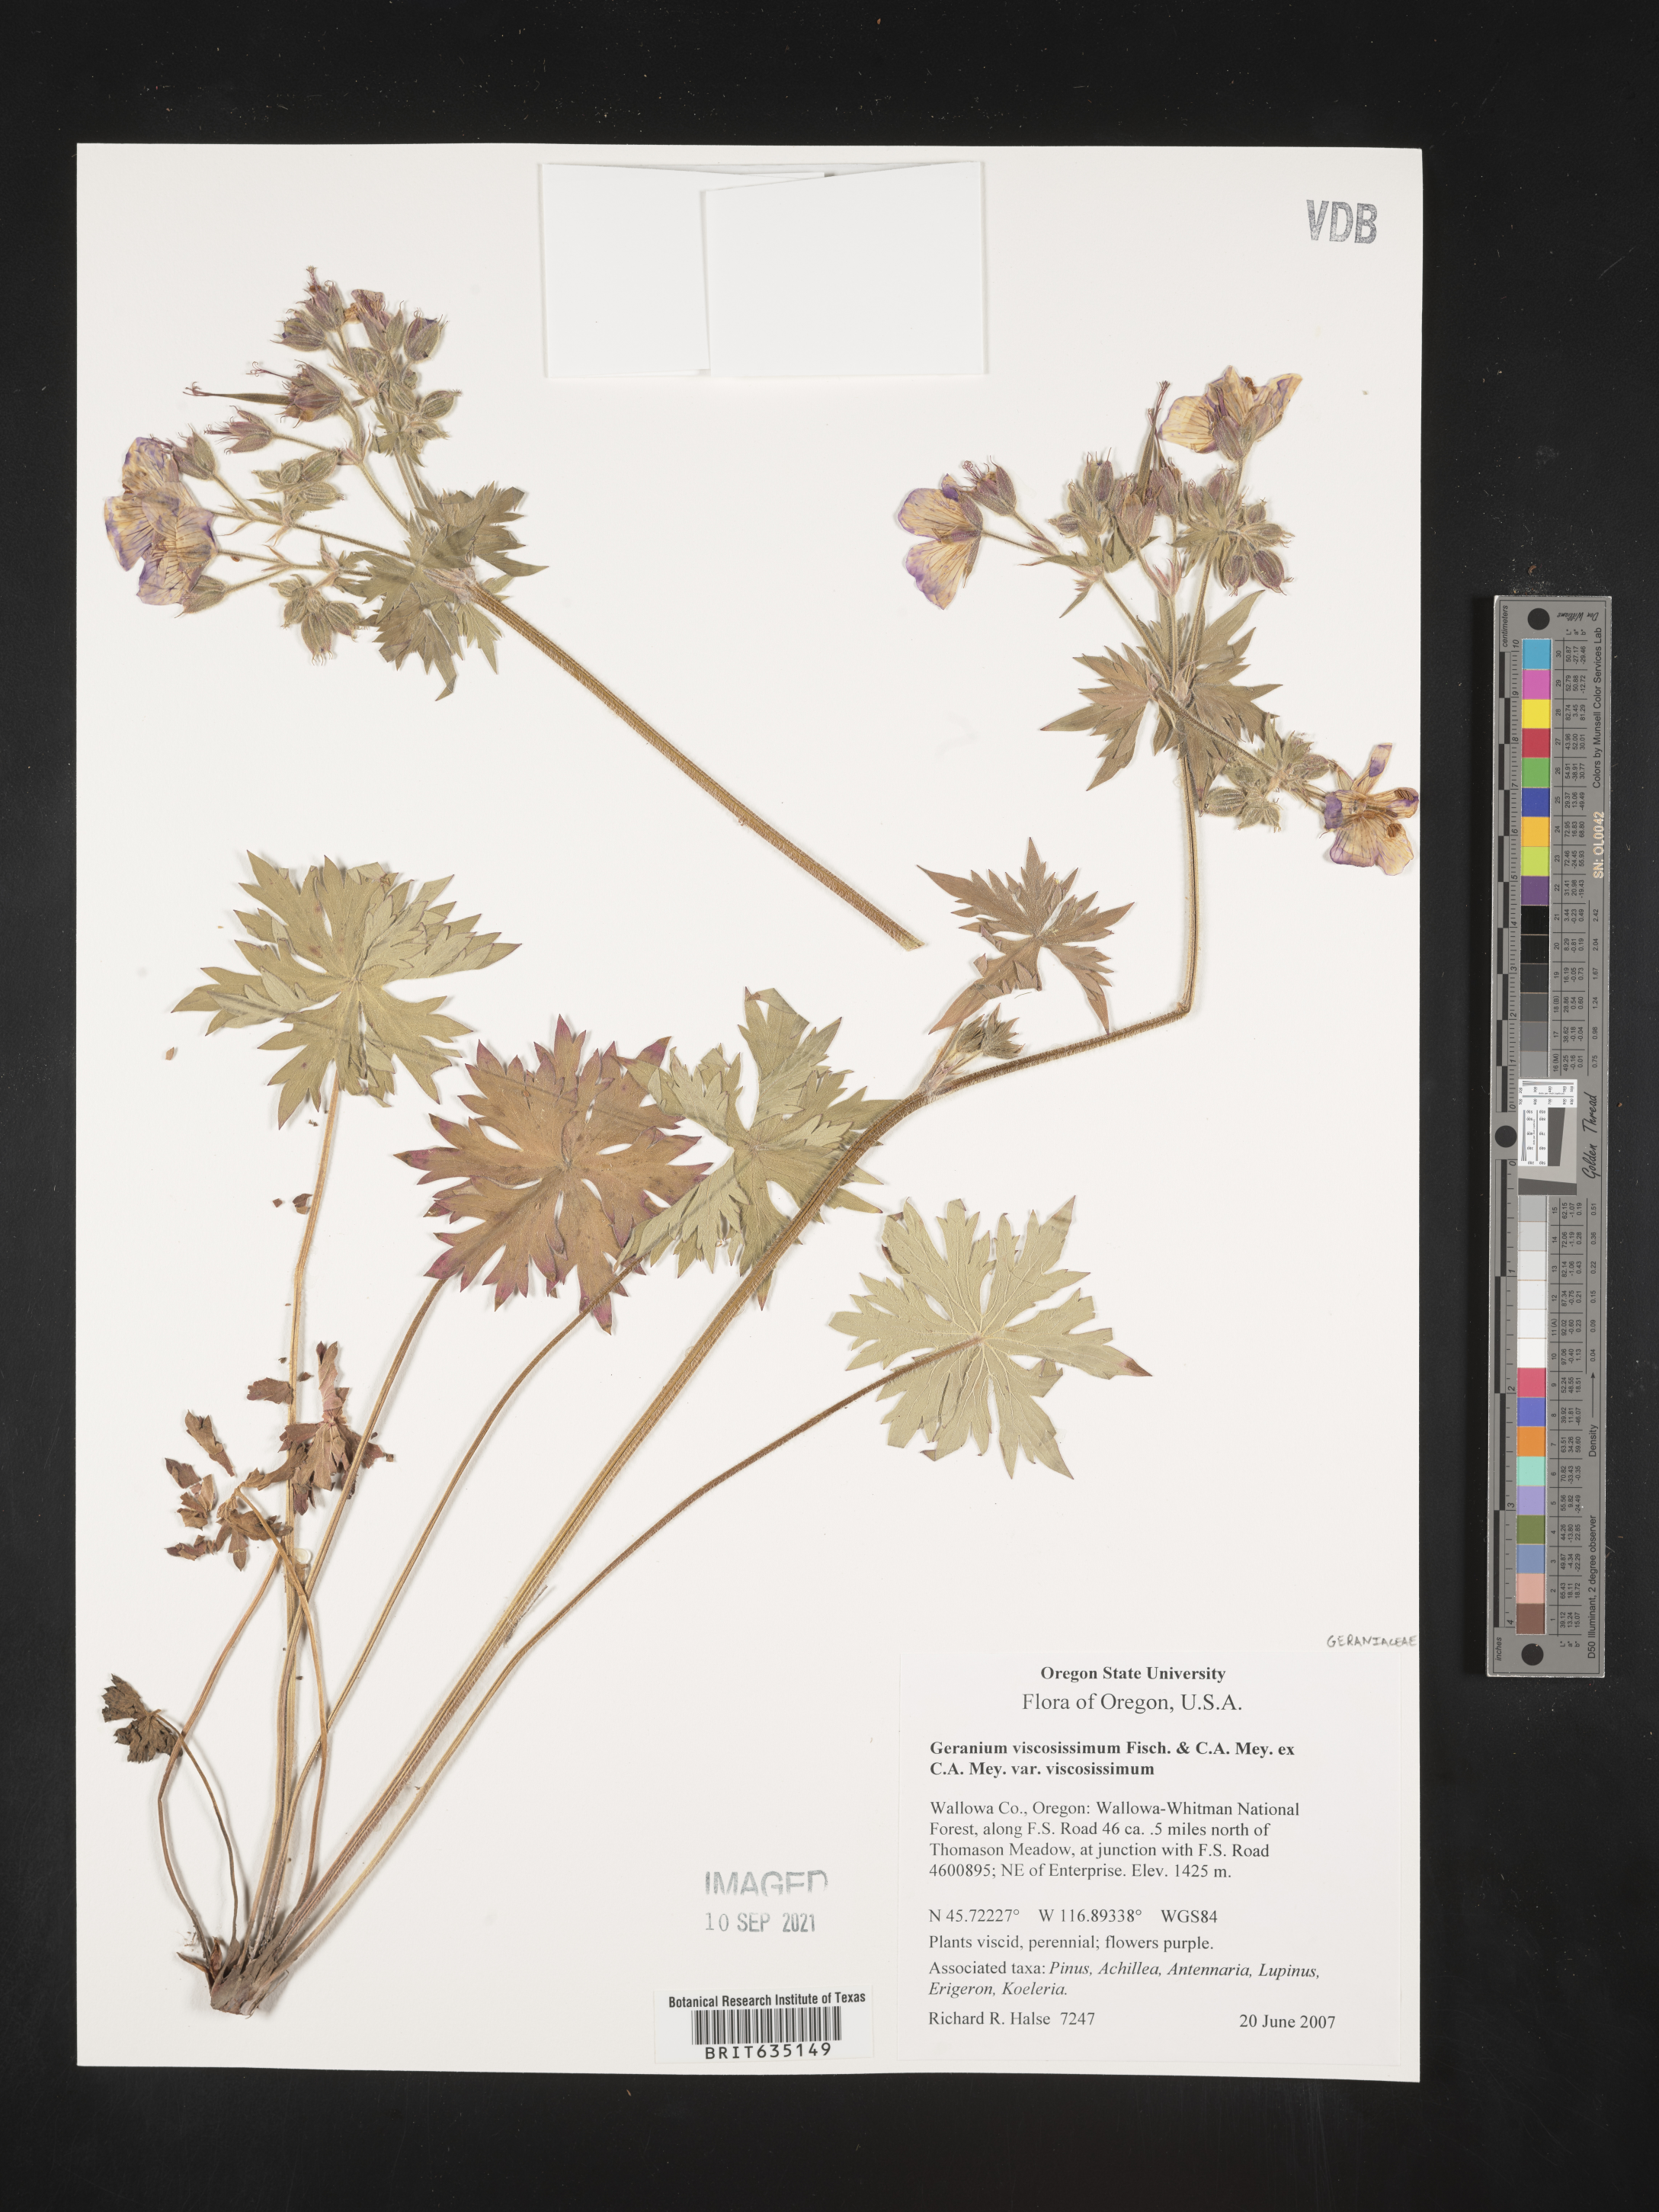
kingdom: Plantae
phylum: Tracheophyta
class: Magnoliopsida
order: Geraniales
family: Geraniaceae
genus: Geranium
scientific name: Geranium viscosissimum
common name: Purple geranium
